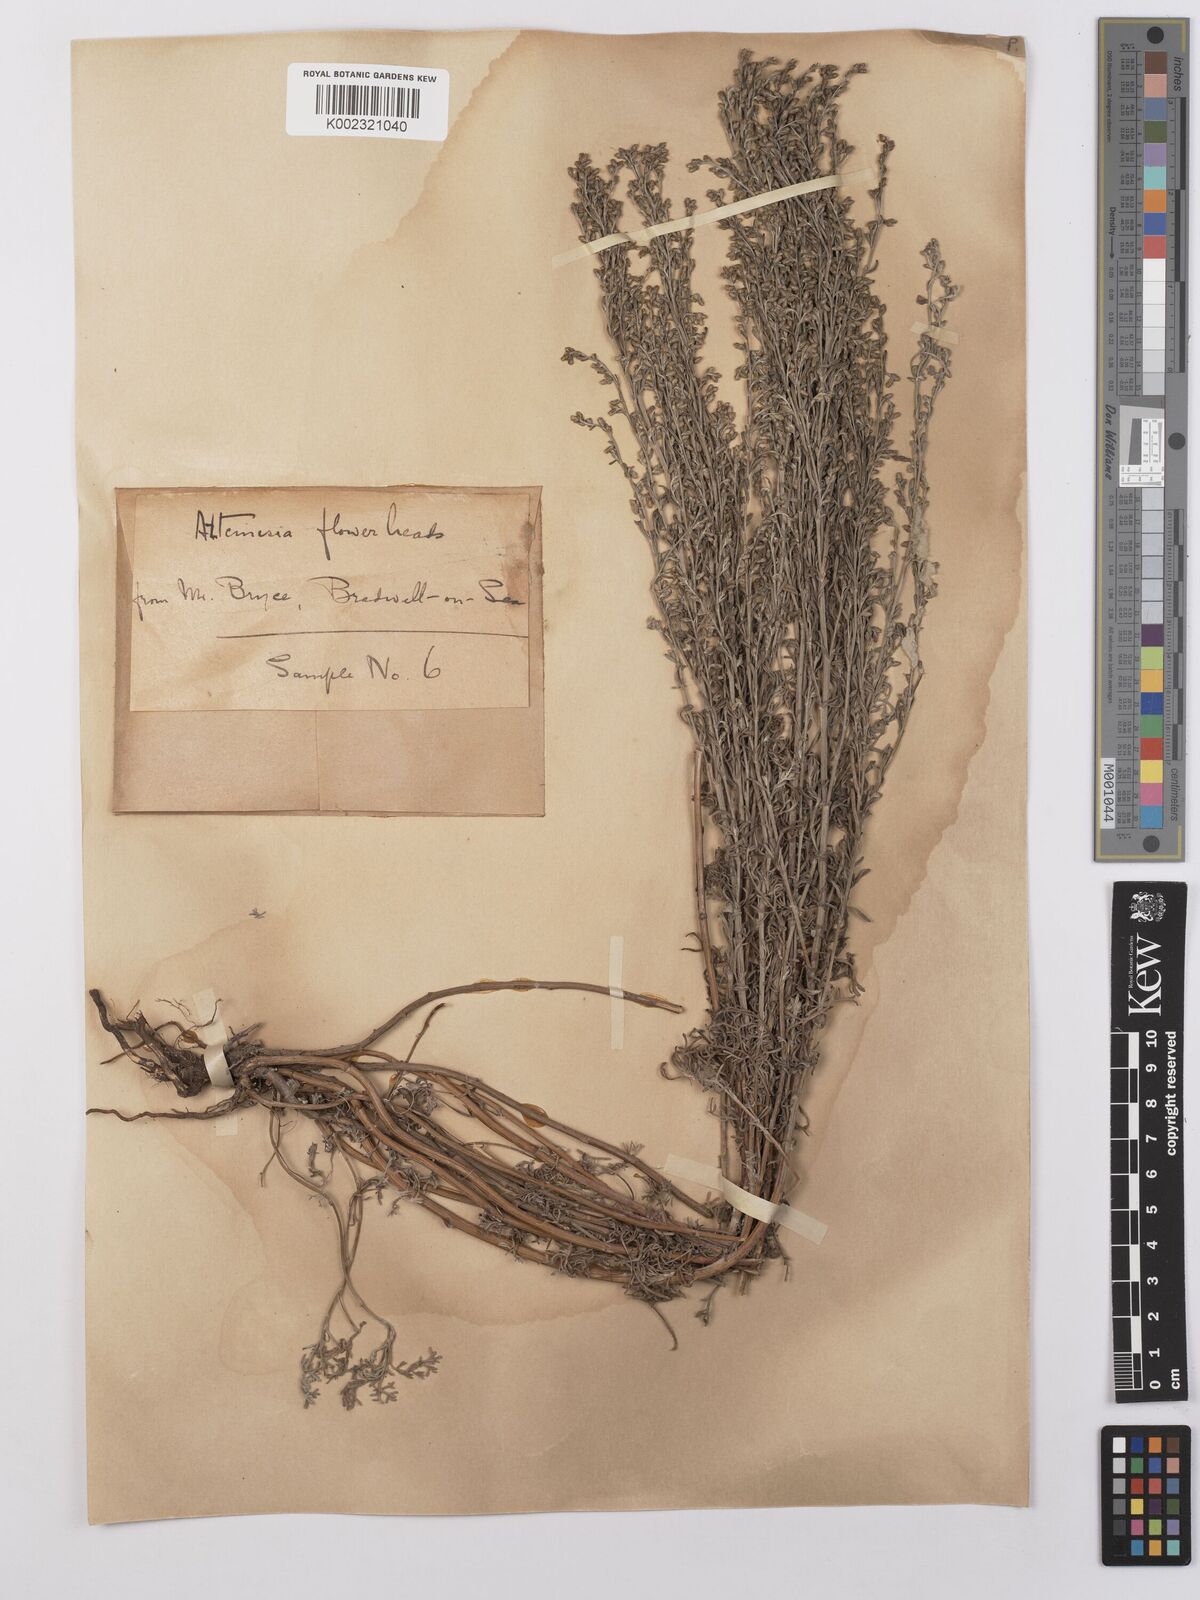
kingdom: Plantae
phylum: Tracheophyta
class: Magnoliopsida
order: Asterales
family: Asteraceae
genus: Artemisia
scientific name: Artemisia maritima
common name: Wormseed
